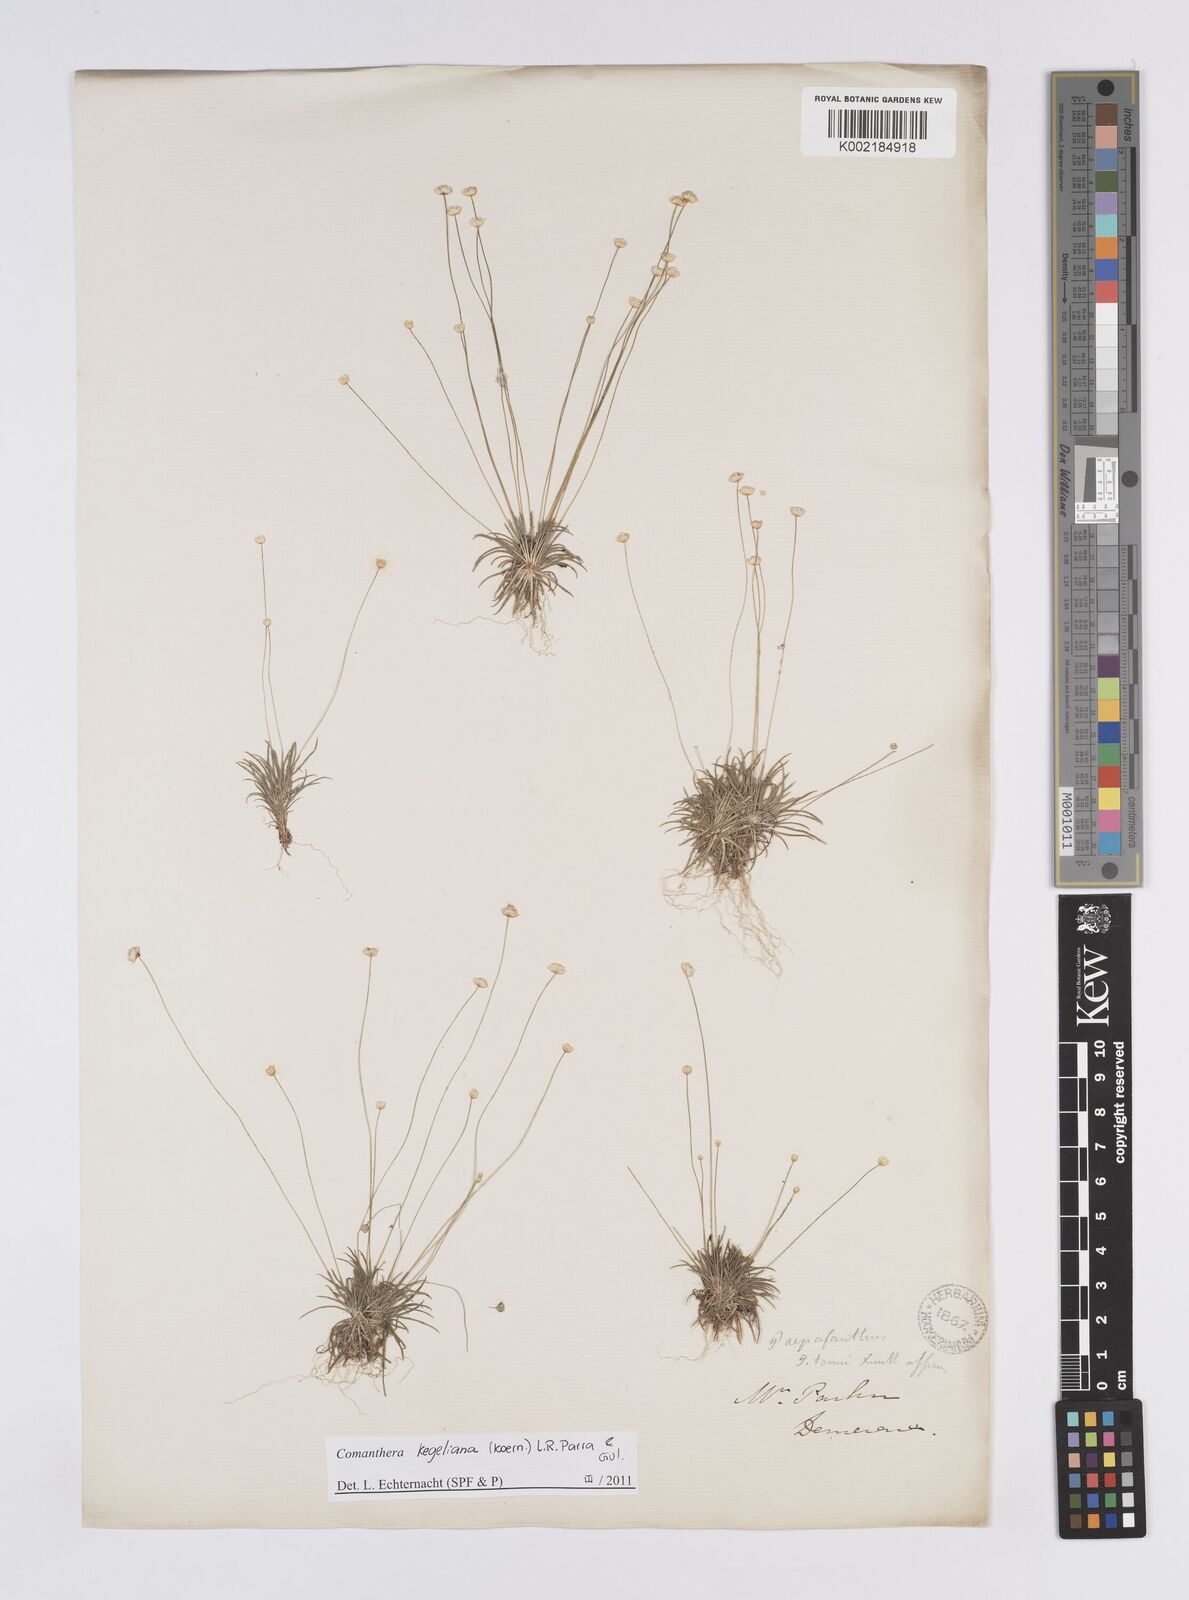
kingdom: Plantae
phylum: Tracheophyta
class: Liliopsida
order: Poales
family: Eriocaulaceae
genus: Comanthera
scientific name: Comanthera kegeliana
